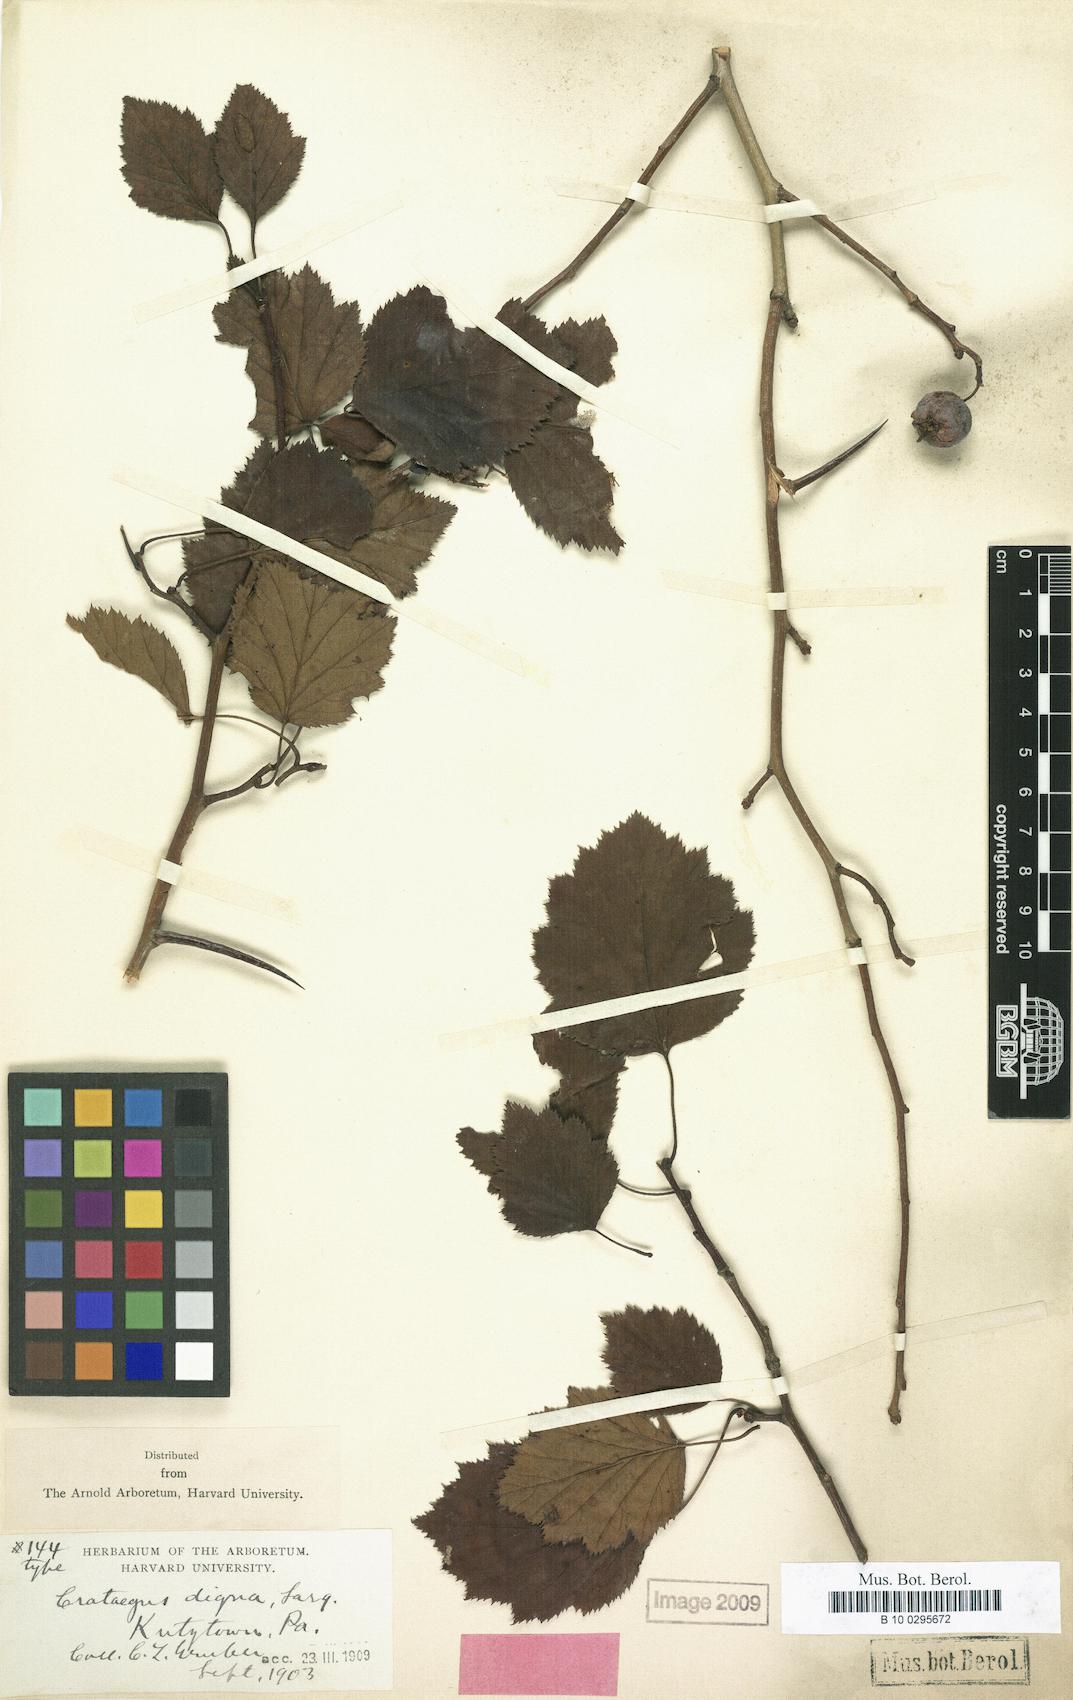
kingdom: Plantae
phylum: Tracheophyta
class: Magnoliopsida
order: Rosales
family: Rosaceae
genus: Crataegus
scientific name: Crataegus digna
